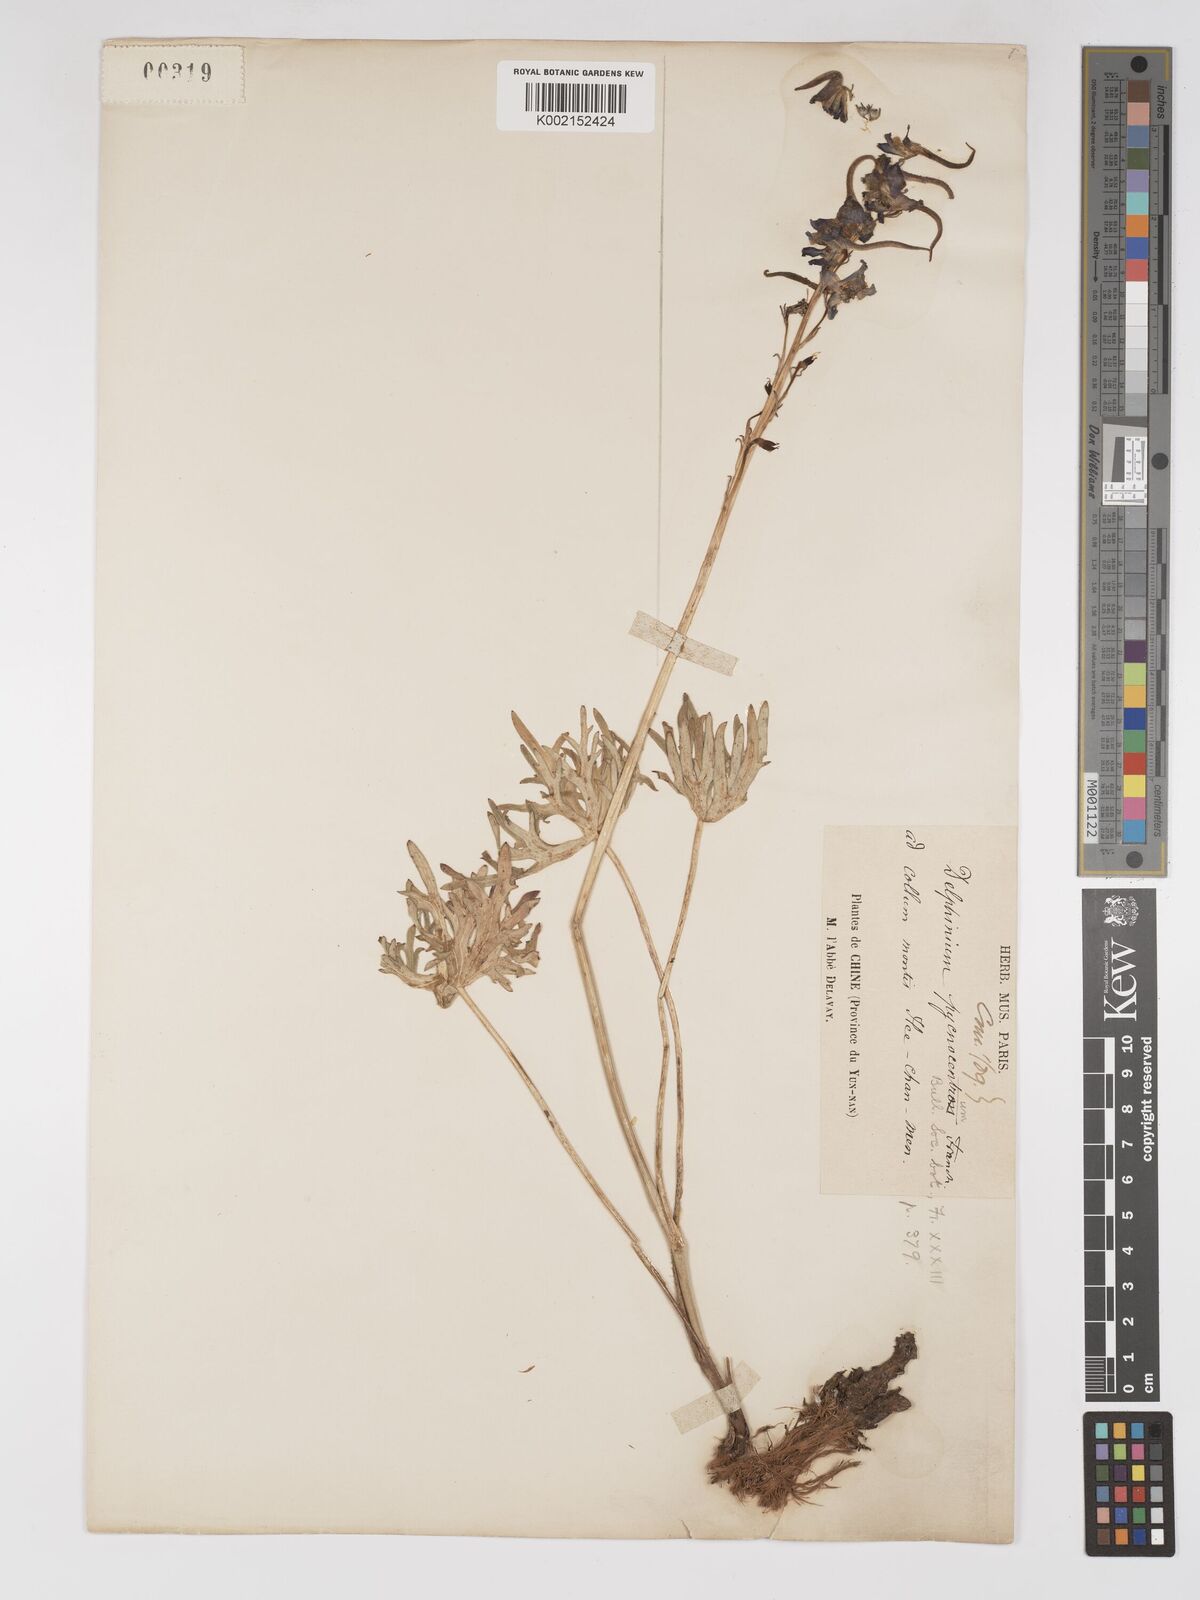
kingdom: Plantae
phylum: Tracheophyta
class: Magnoliopsida
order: Ranunculales
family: Ranunculaceae
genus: Delphinium
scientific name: Delphinium pycnocentrum
